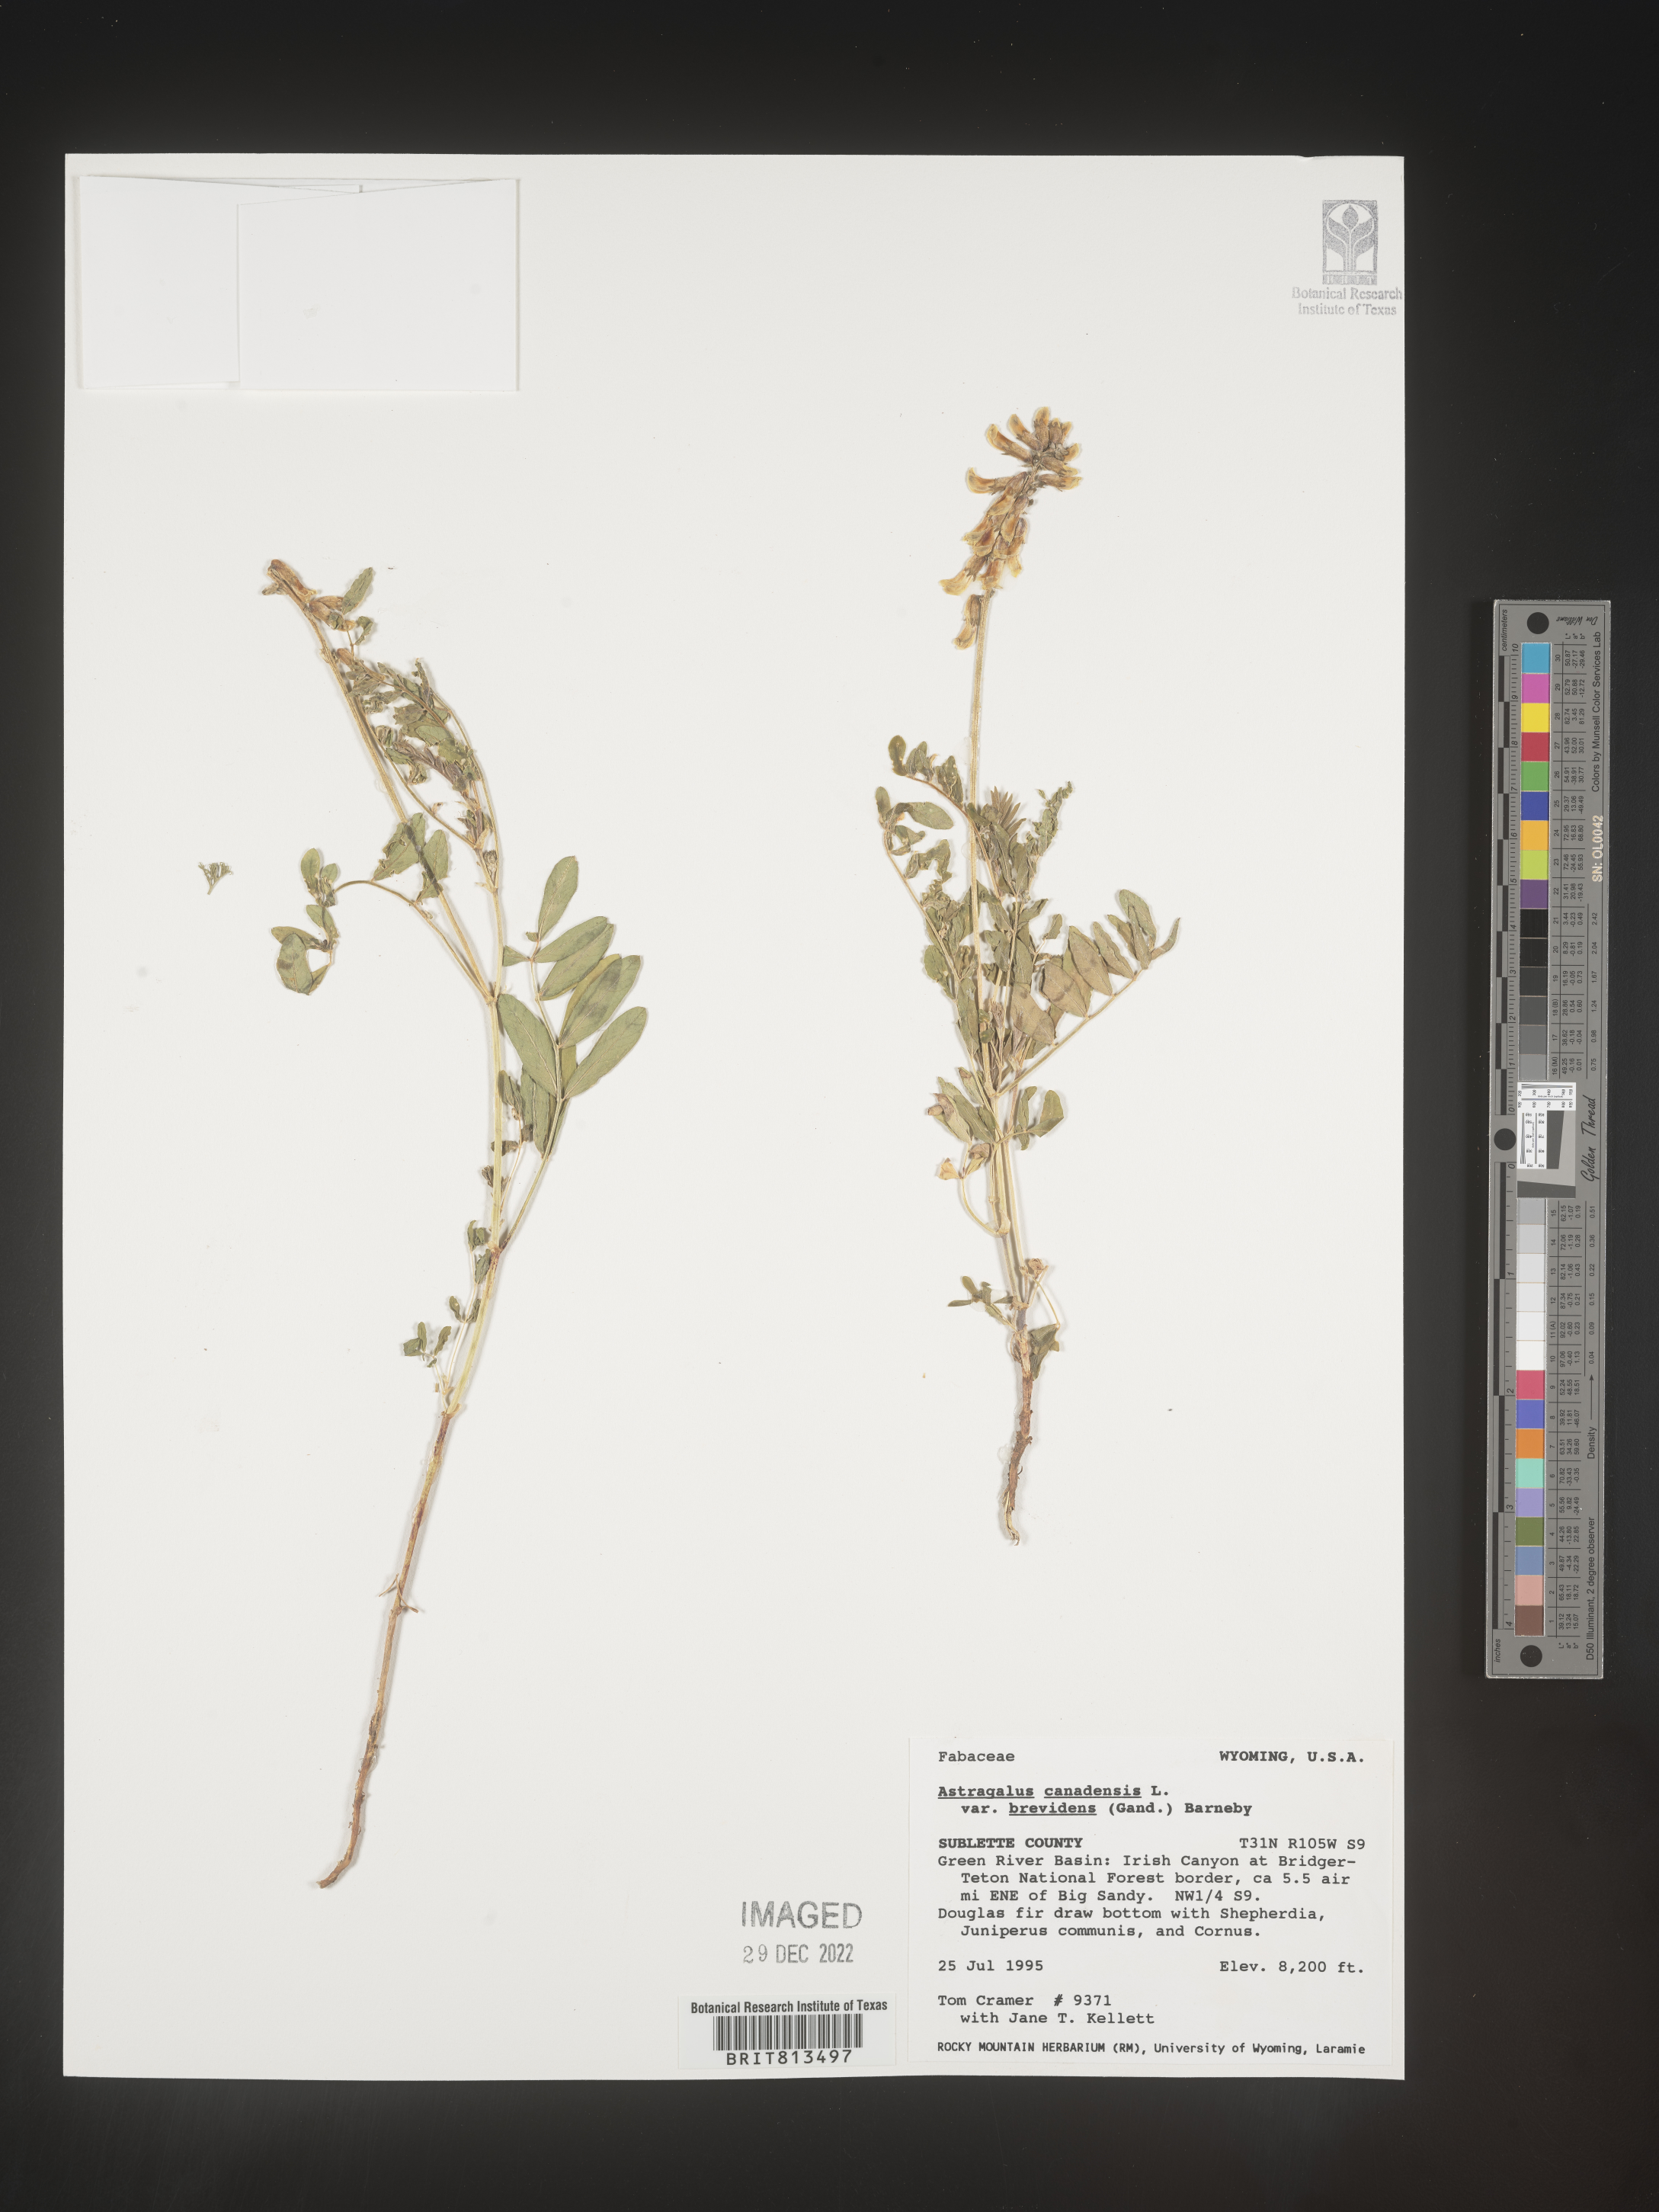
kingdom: Plantae
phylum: Tracheophyta
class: Magnoliopsida
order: Fabales
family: Fabaceae
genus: Astragalus
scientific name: Astragalus canadensis
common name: Canada milk-vetch
